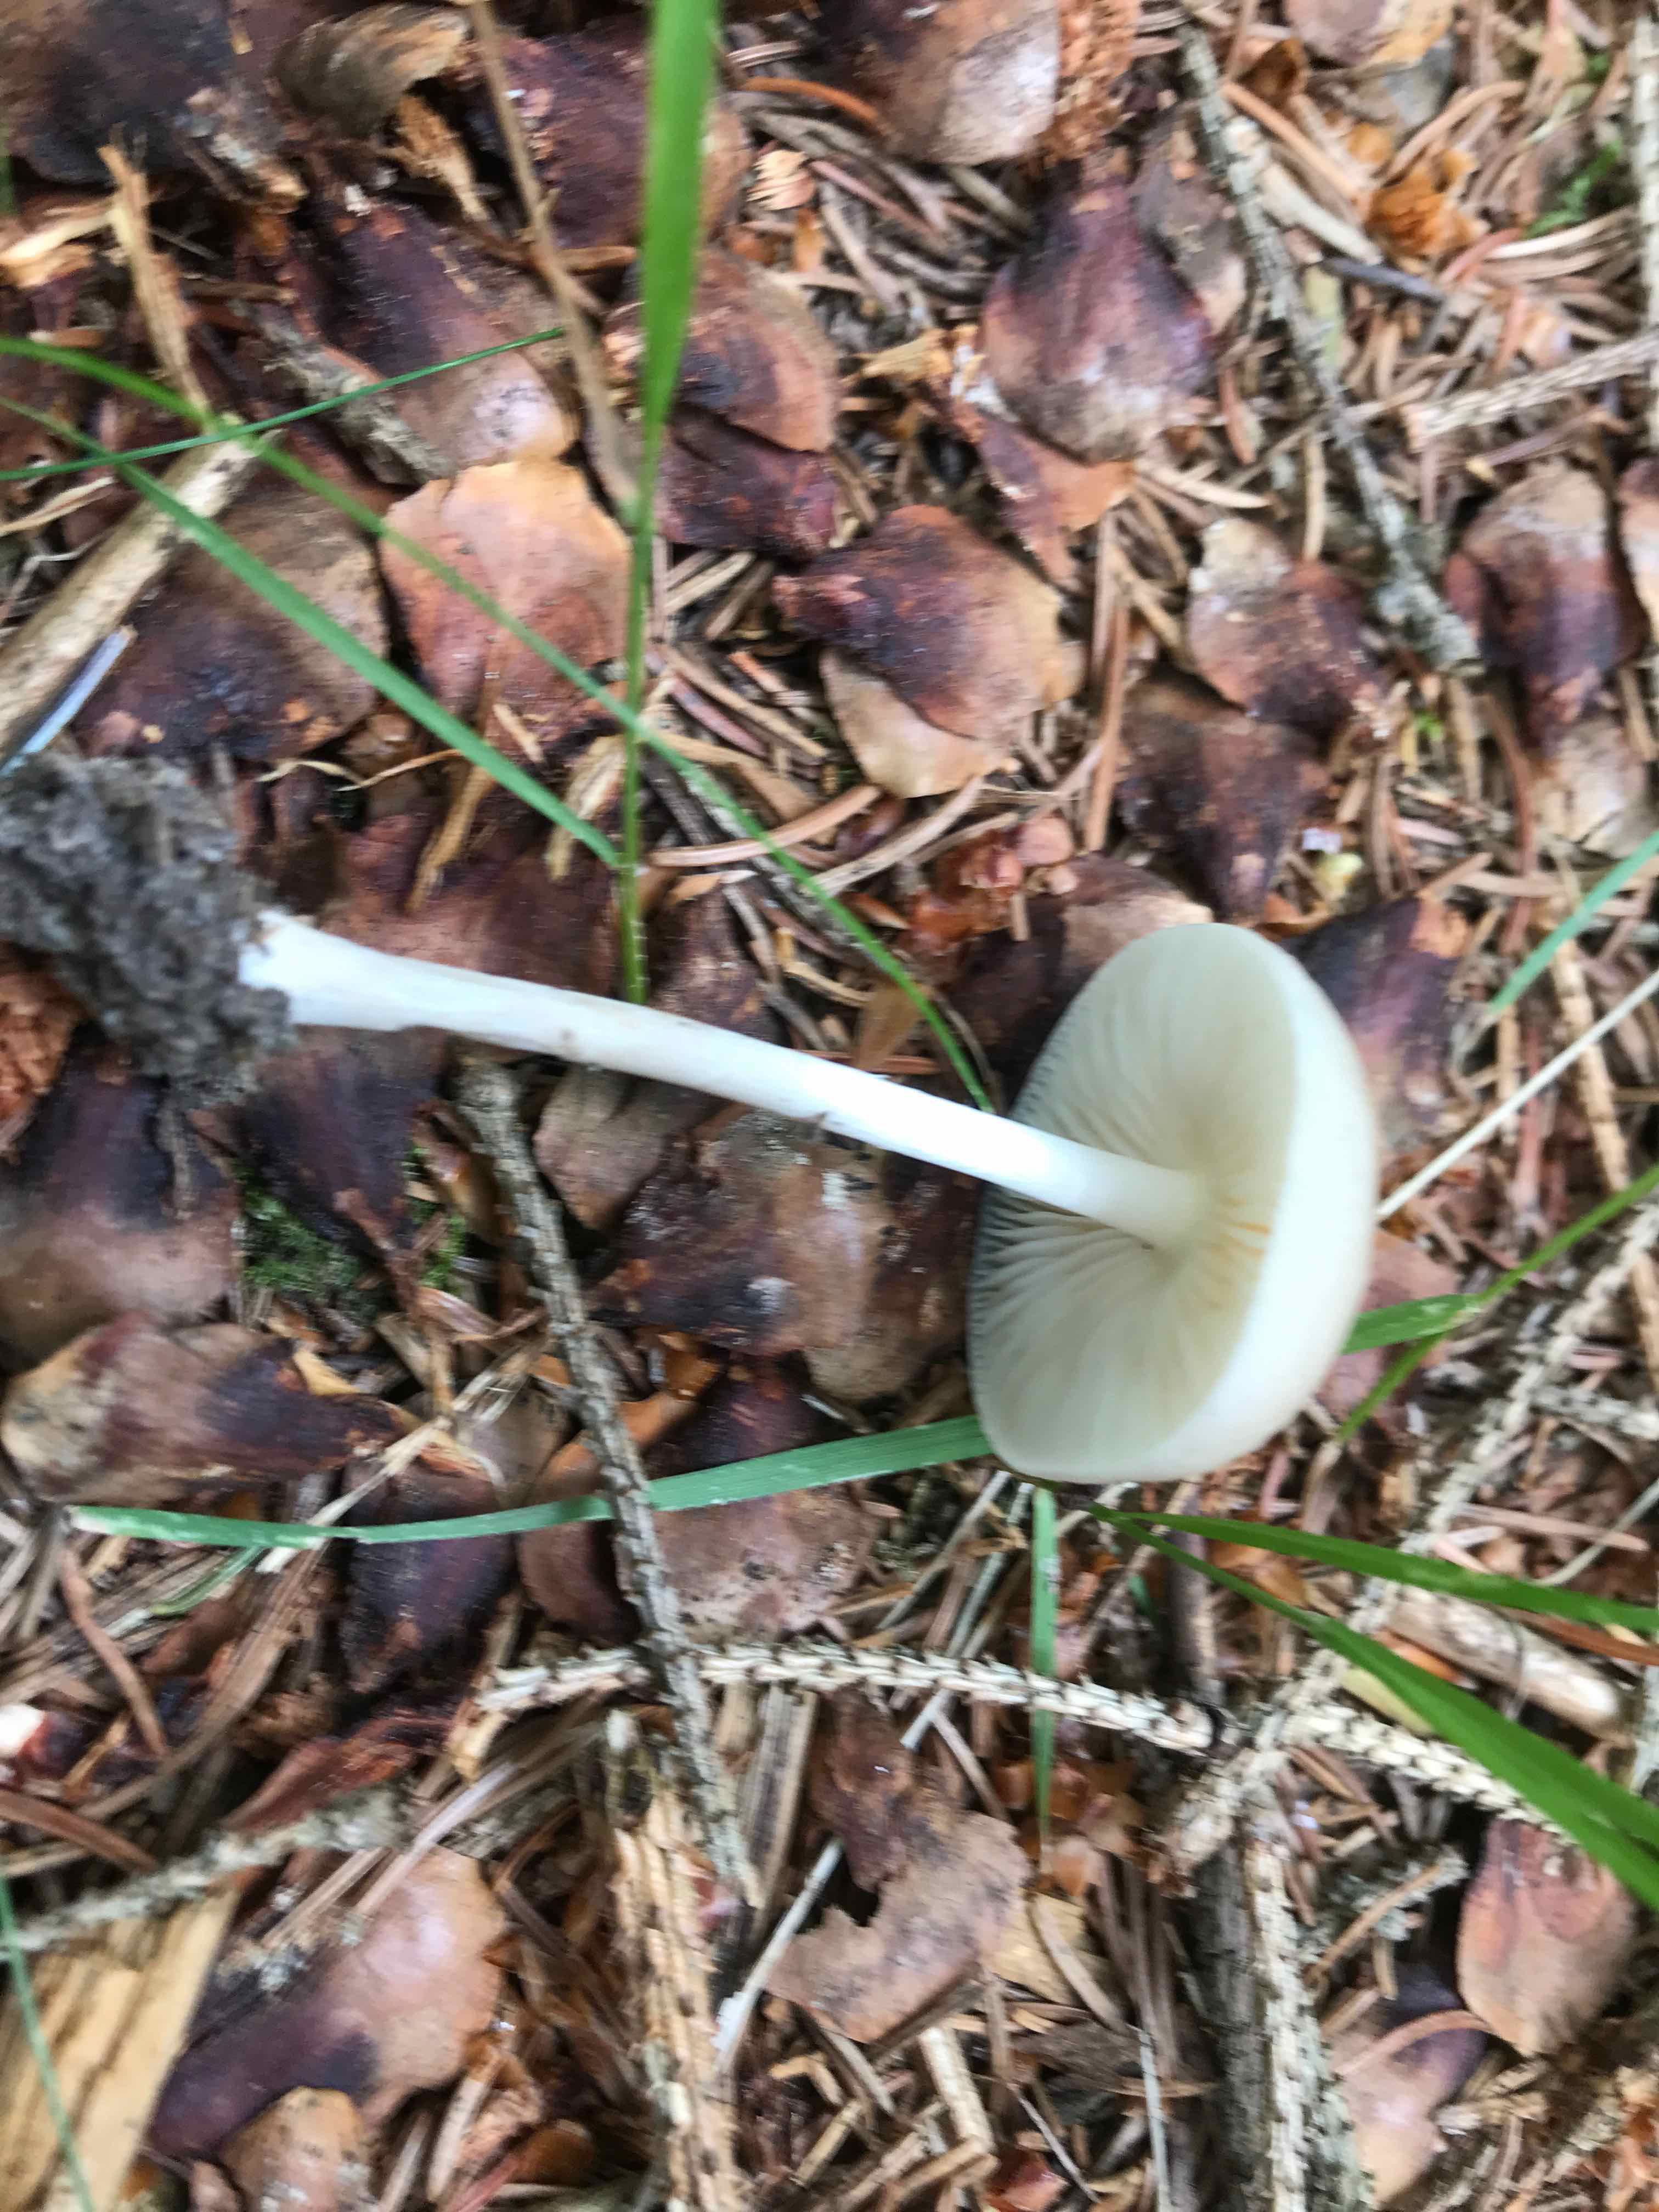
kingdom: Fungi
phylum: Basidiomycota
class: Agaricomycetes
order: Agaricales
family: Physalacriaceae
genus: Hymenopellis
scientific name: Hymenopellis radicata
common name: almindelig pælerodshat
